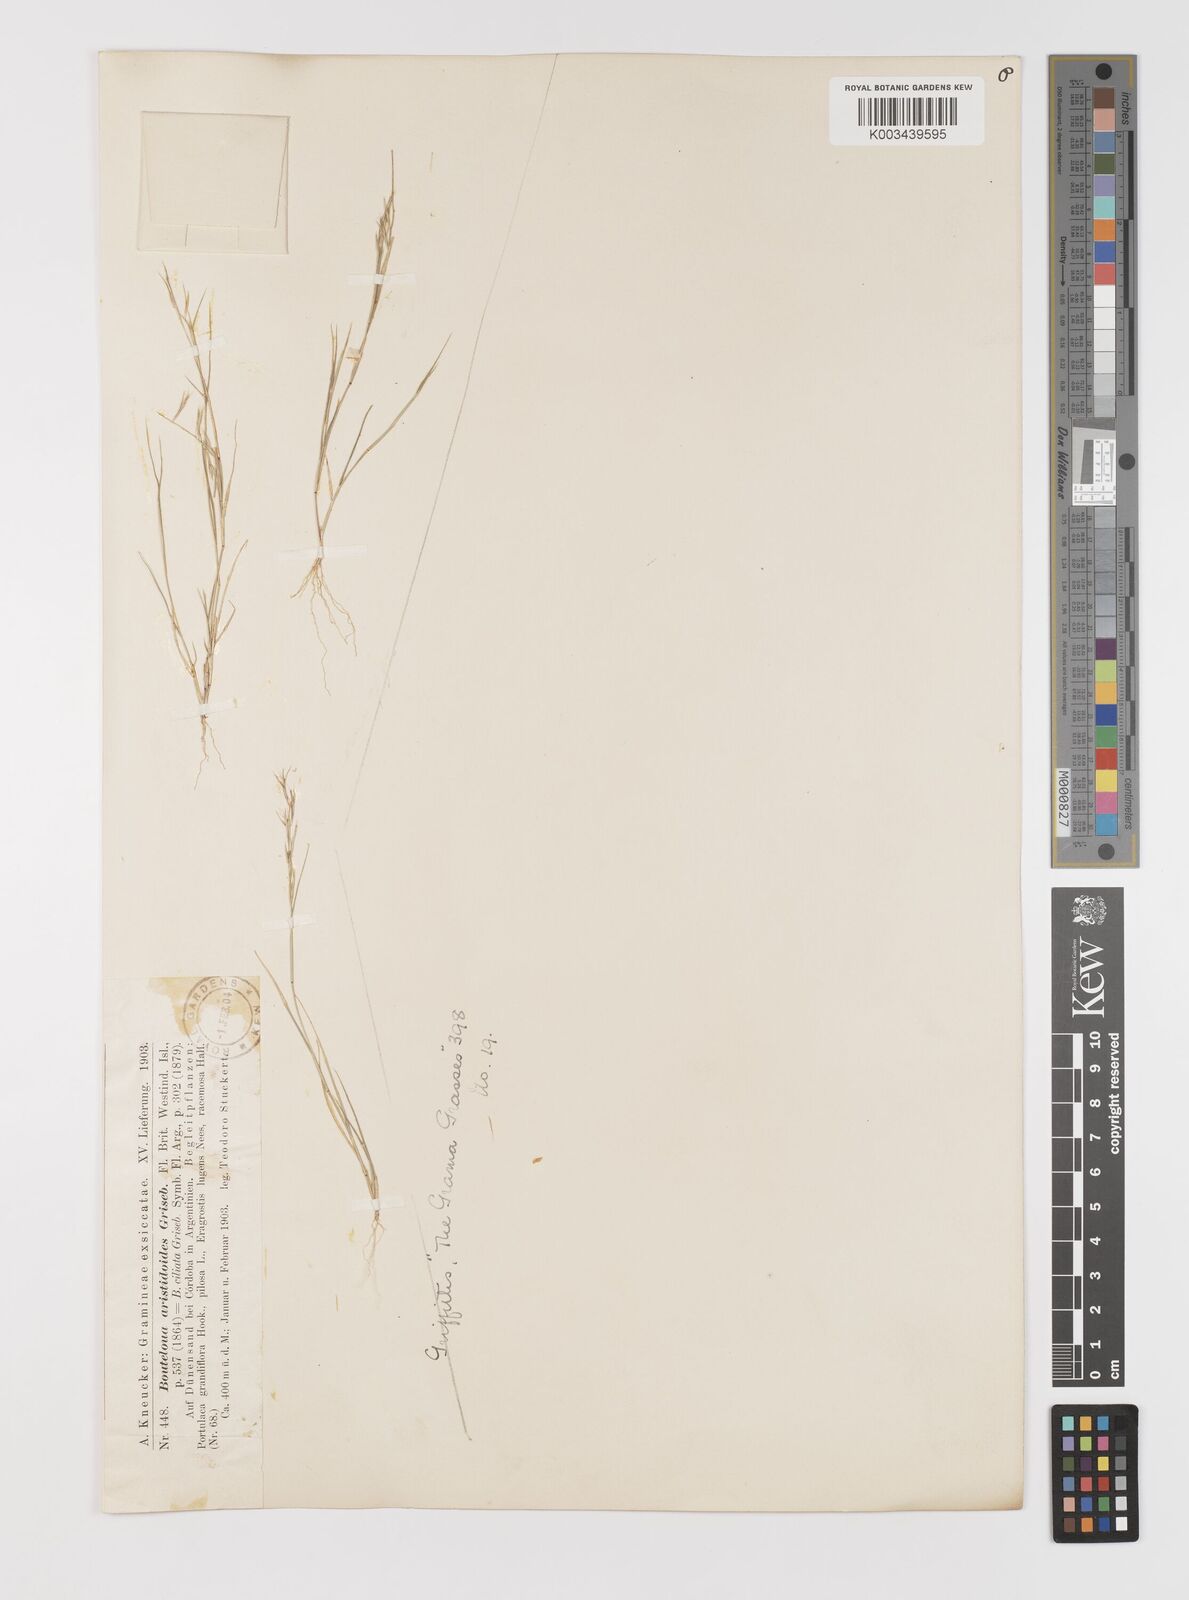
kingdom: Plantae
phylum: Tracheophyta
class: Liliopsida
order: Poales
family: Poaceae
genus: Bouteloua
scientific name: Bouteloua
